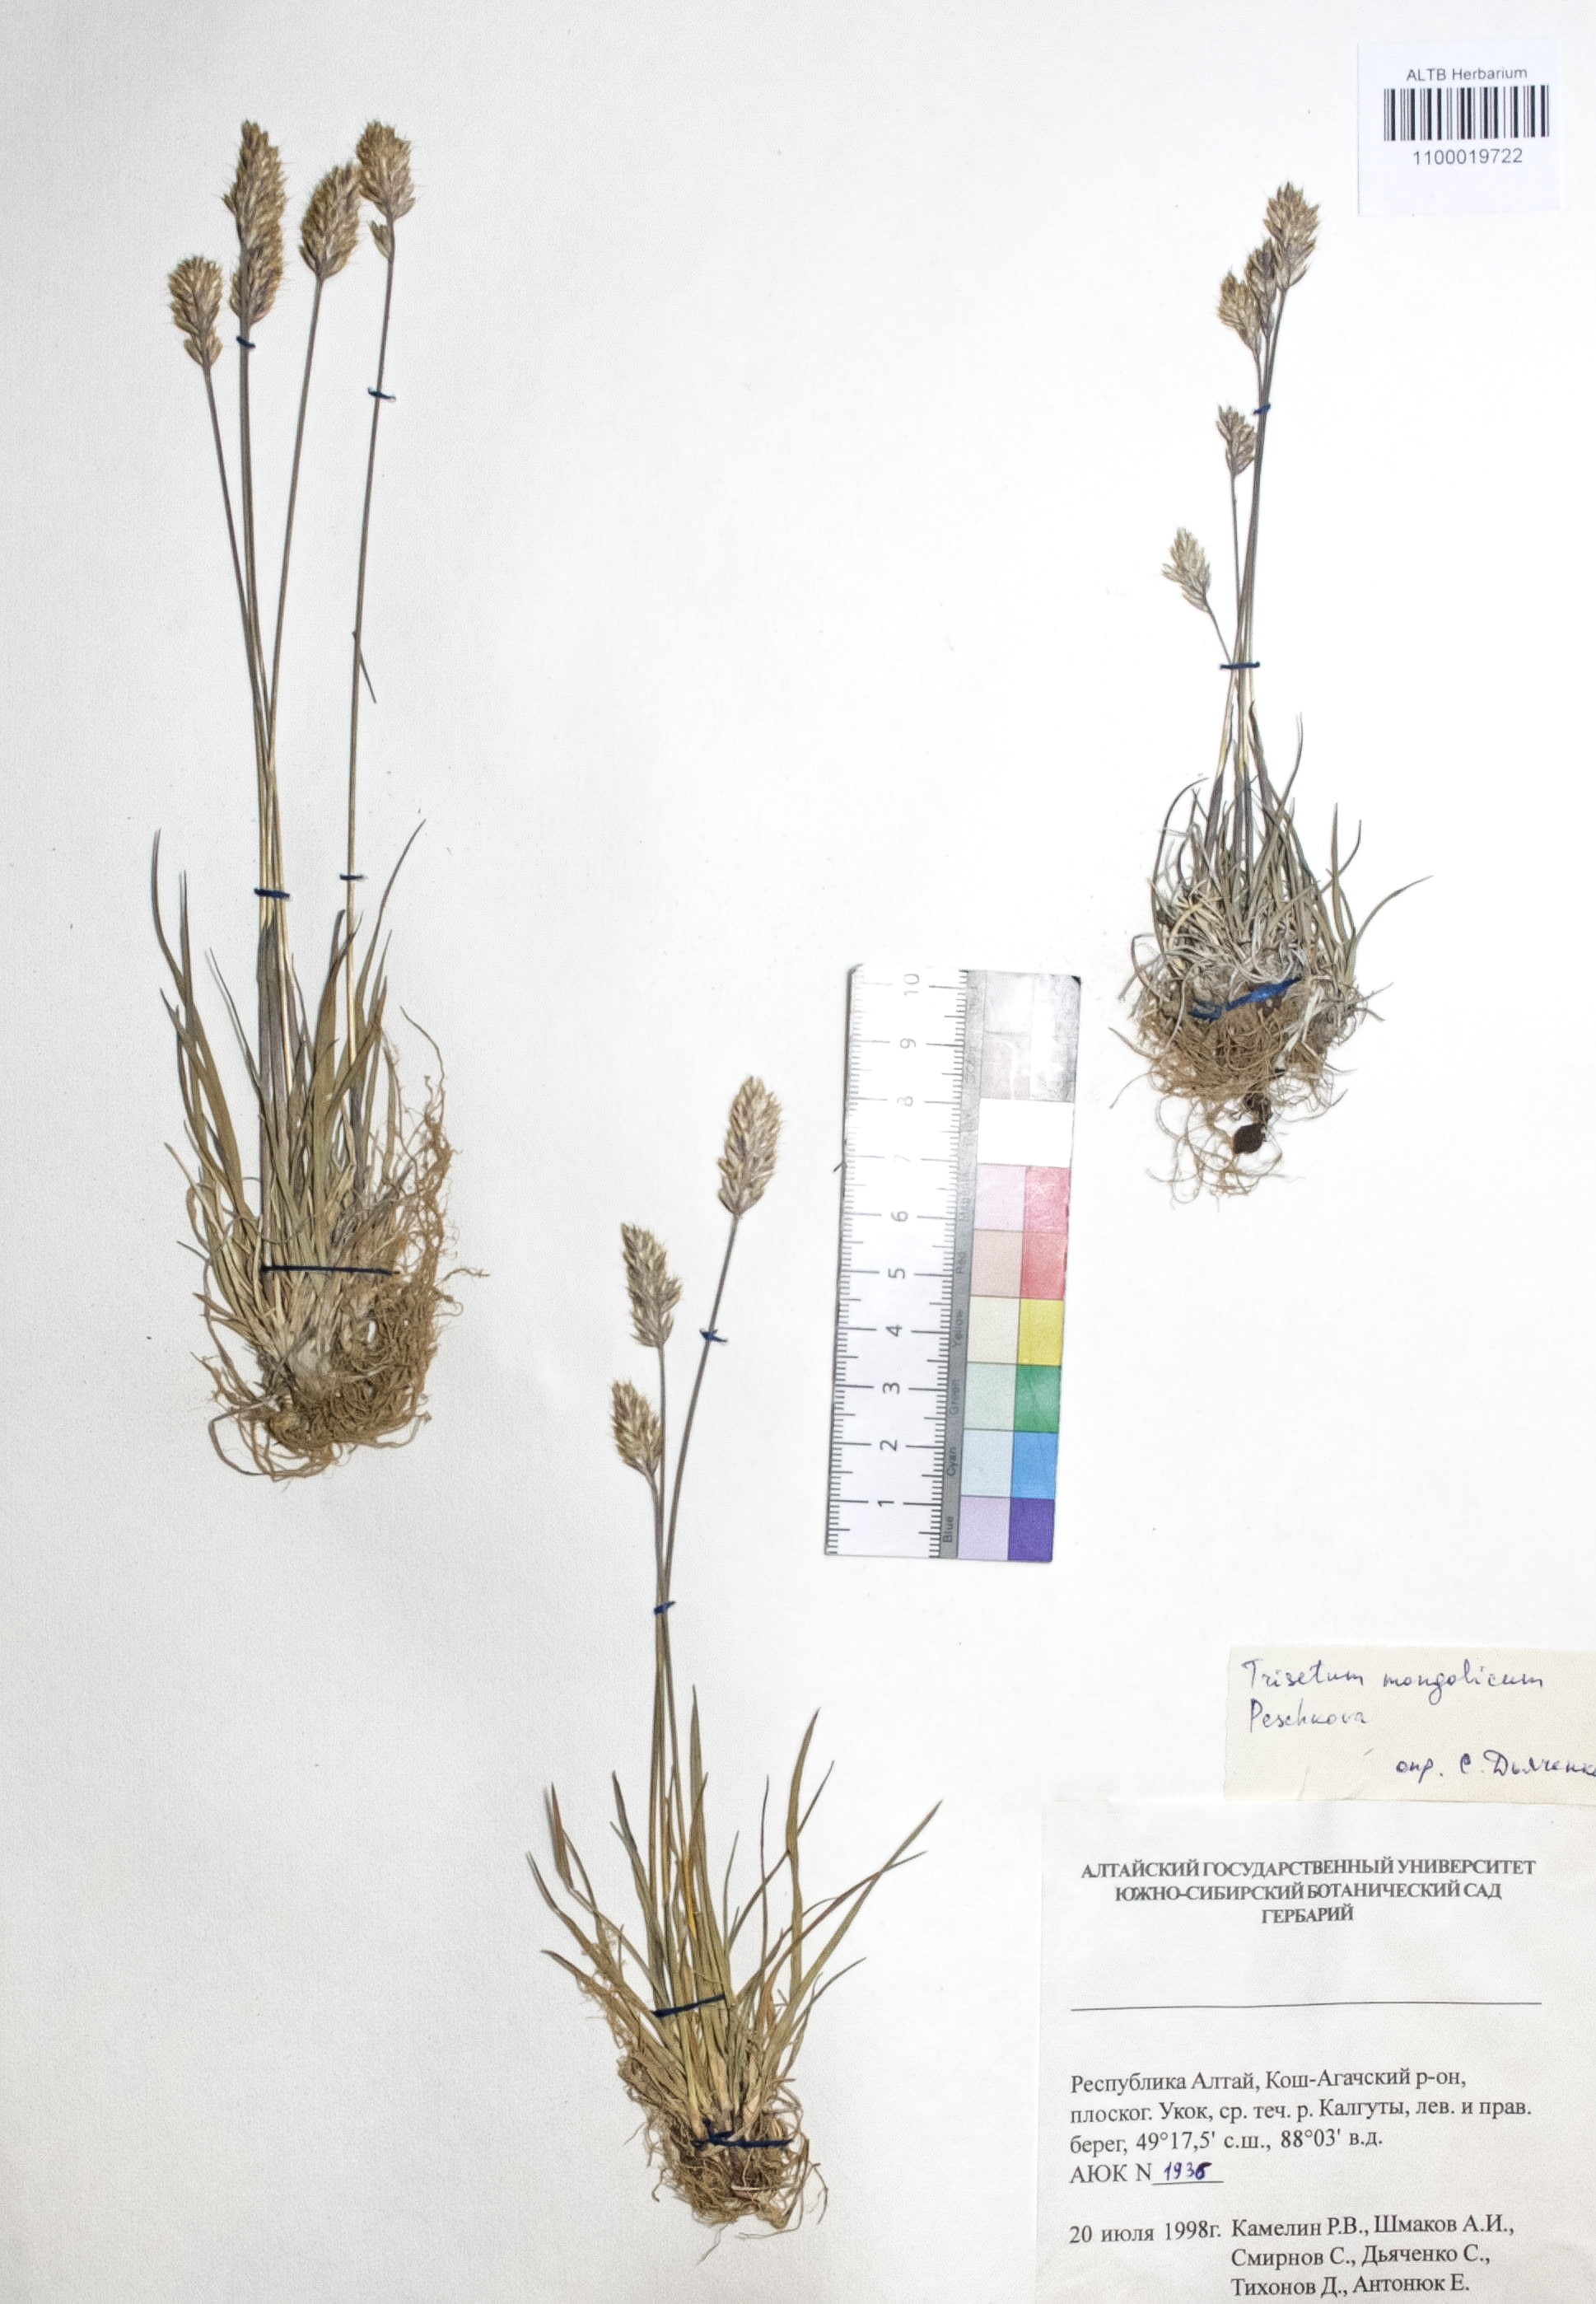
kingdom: Plantae
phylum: Tracheophyta
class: Liliopsida
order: Poales
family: Poaceae
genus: Koeleria
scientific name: Koeleria spicata
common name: Mountain trisetum
